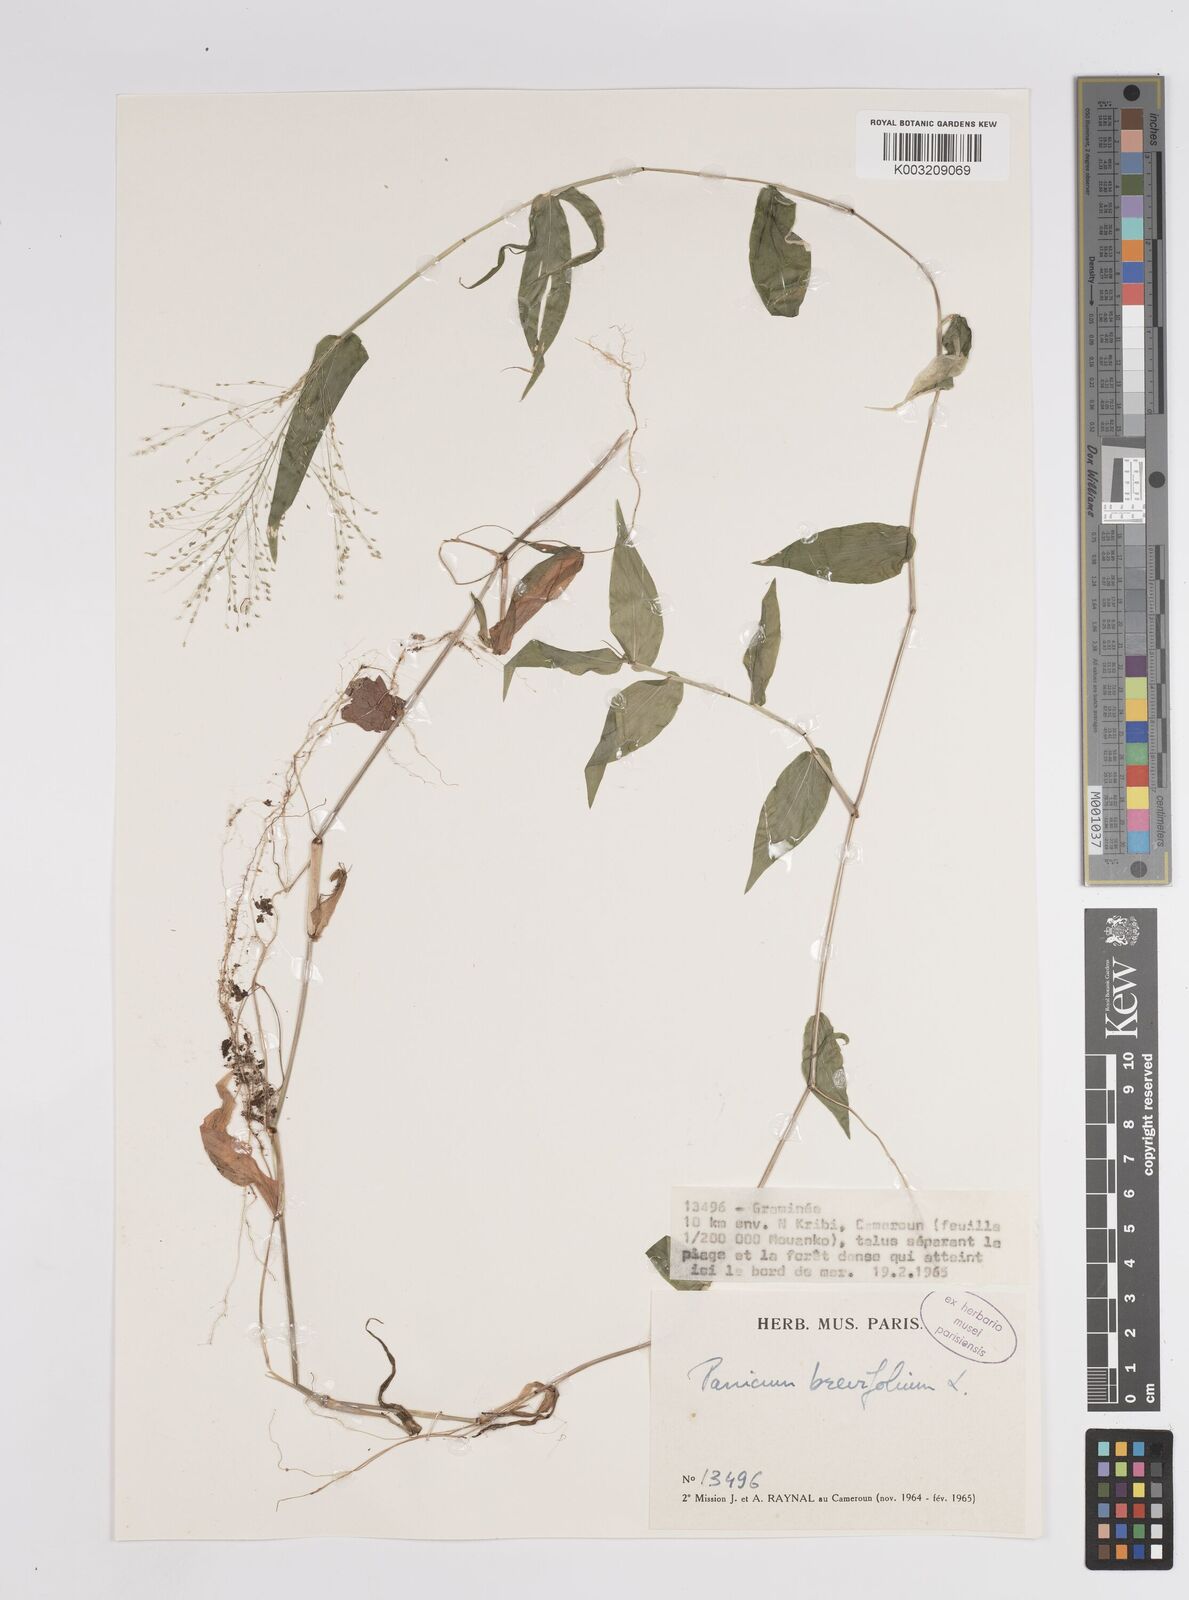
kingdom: Plantae
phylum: Tracheophyta
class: Liliopsida
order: Poales
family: Poaceae
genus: Panicum
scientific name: Panicum brevifolium
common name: Shortleaf panic grass
